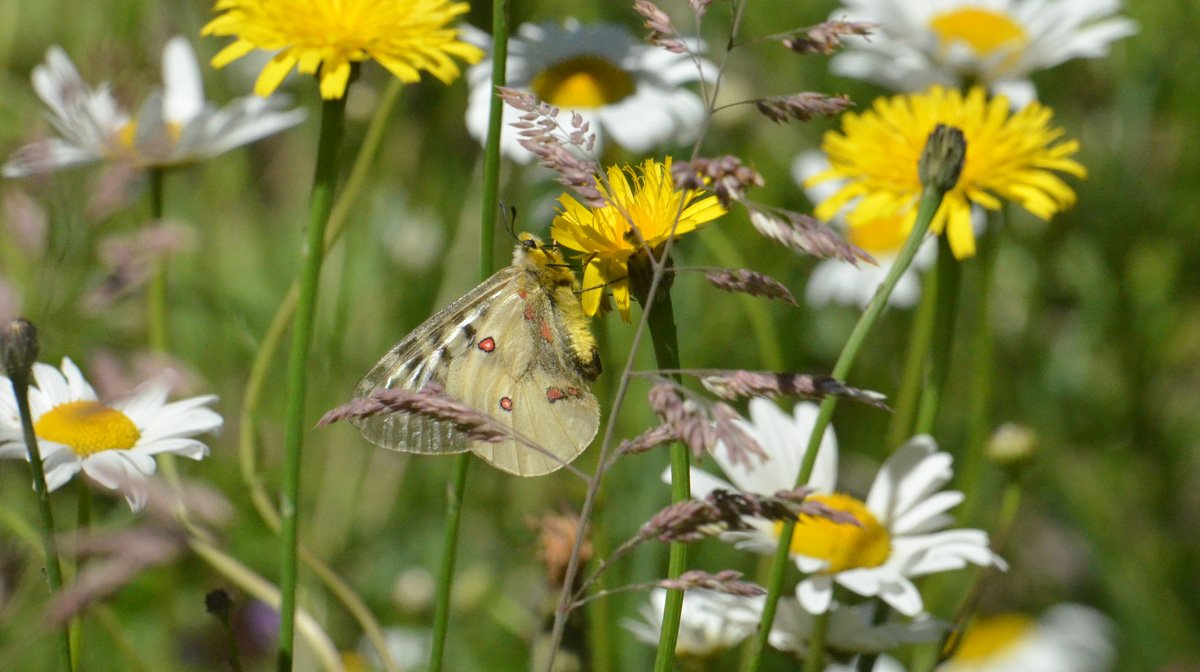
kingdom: Animalia
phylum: Arthropoda
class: Insecta
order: Lepidoptera
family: Papilionidae
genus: Parnassius
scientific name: Parnassius clodius
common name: Clodius Parnassian
